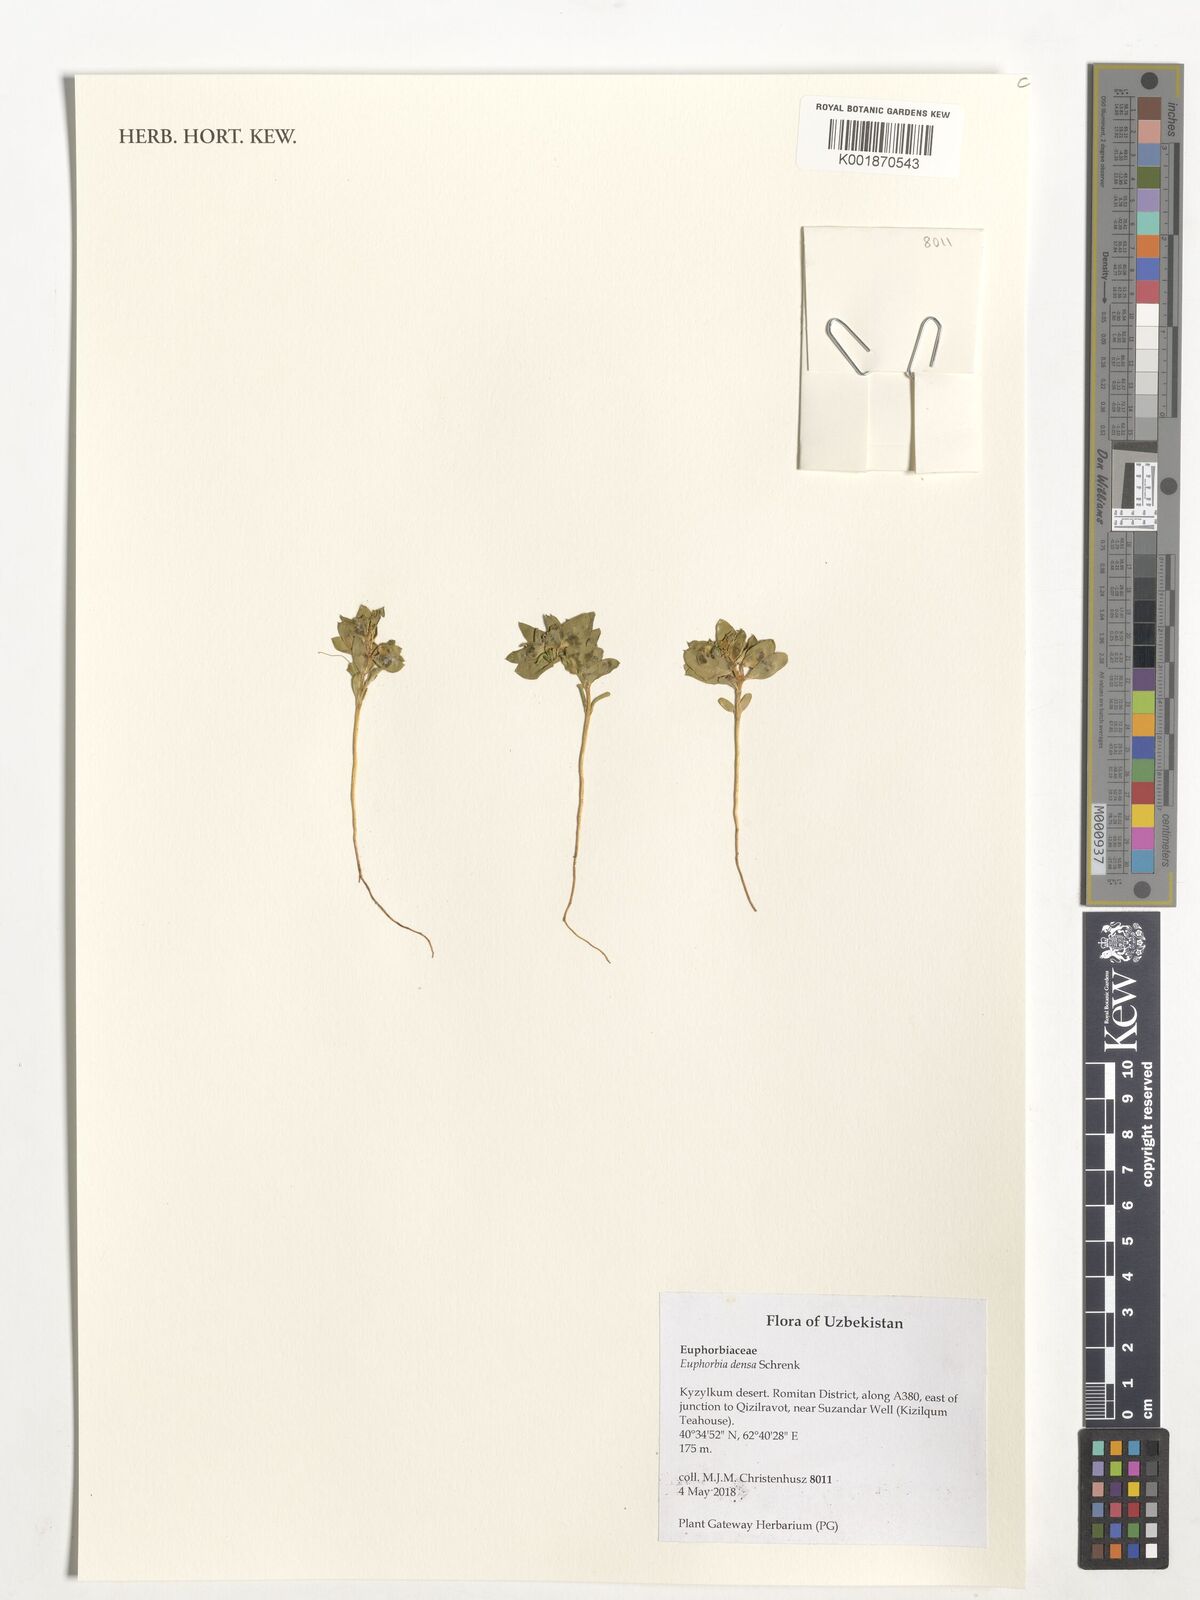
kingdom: Plantae
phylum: Tracheophyta
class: Magnoliopsida
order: Malpighiales
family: Euphorbiaceae
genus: Euphorbia
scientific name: Euphorbia densa
